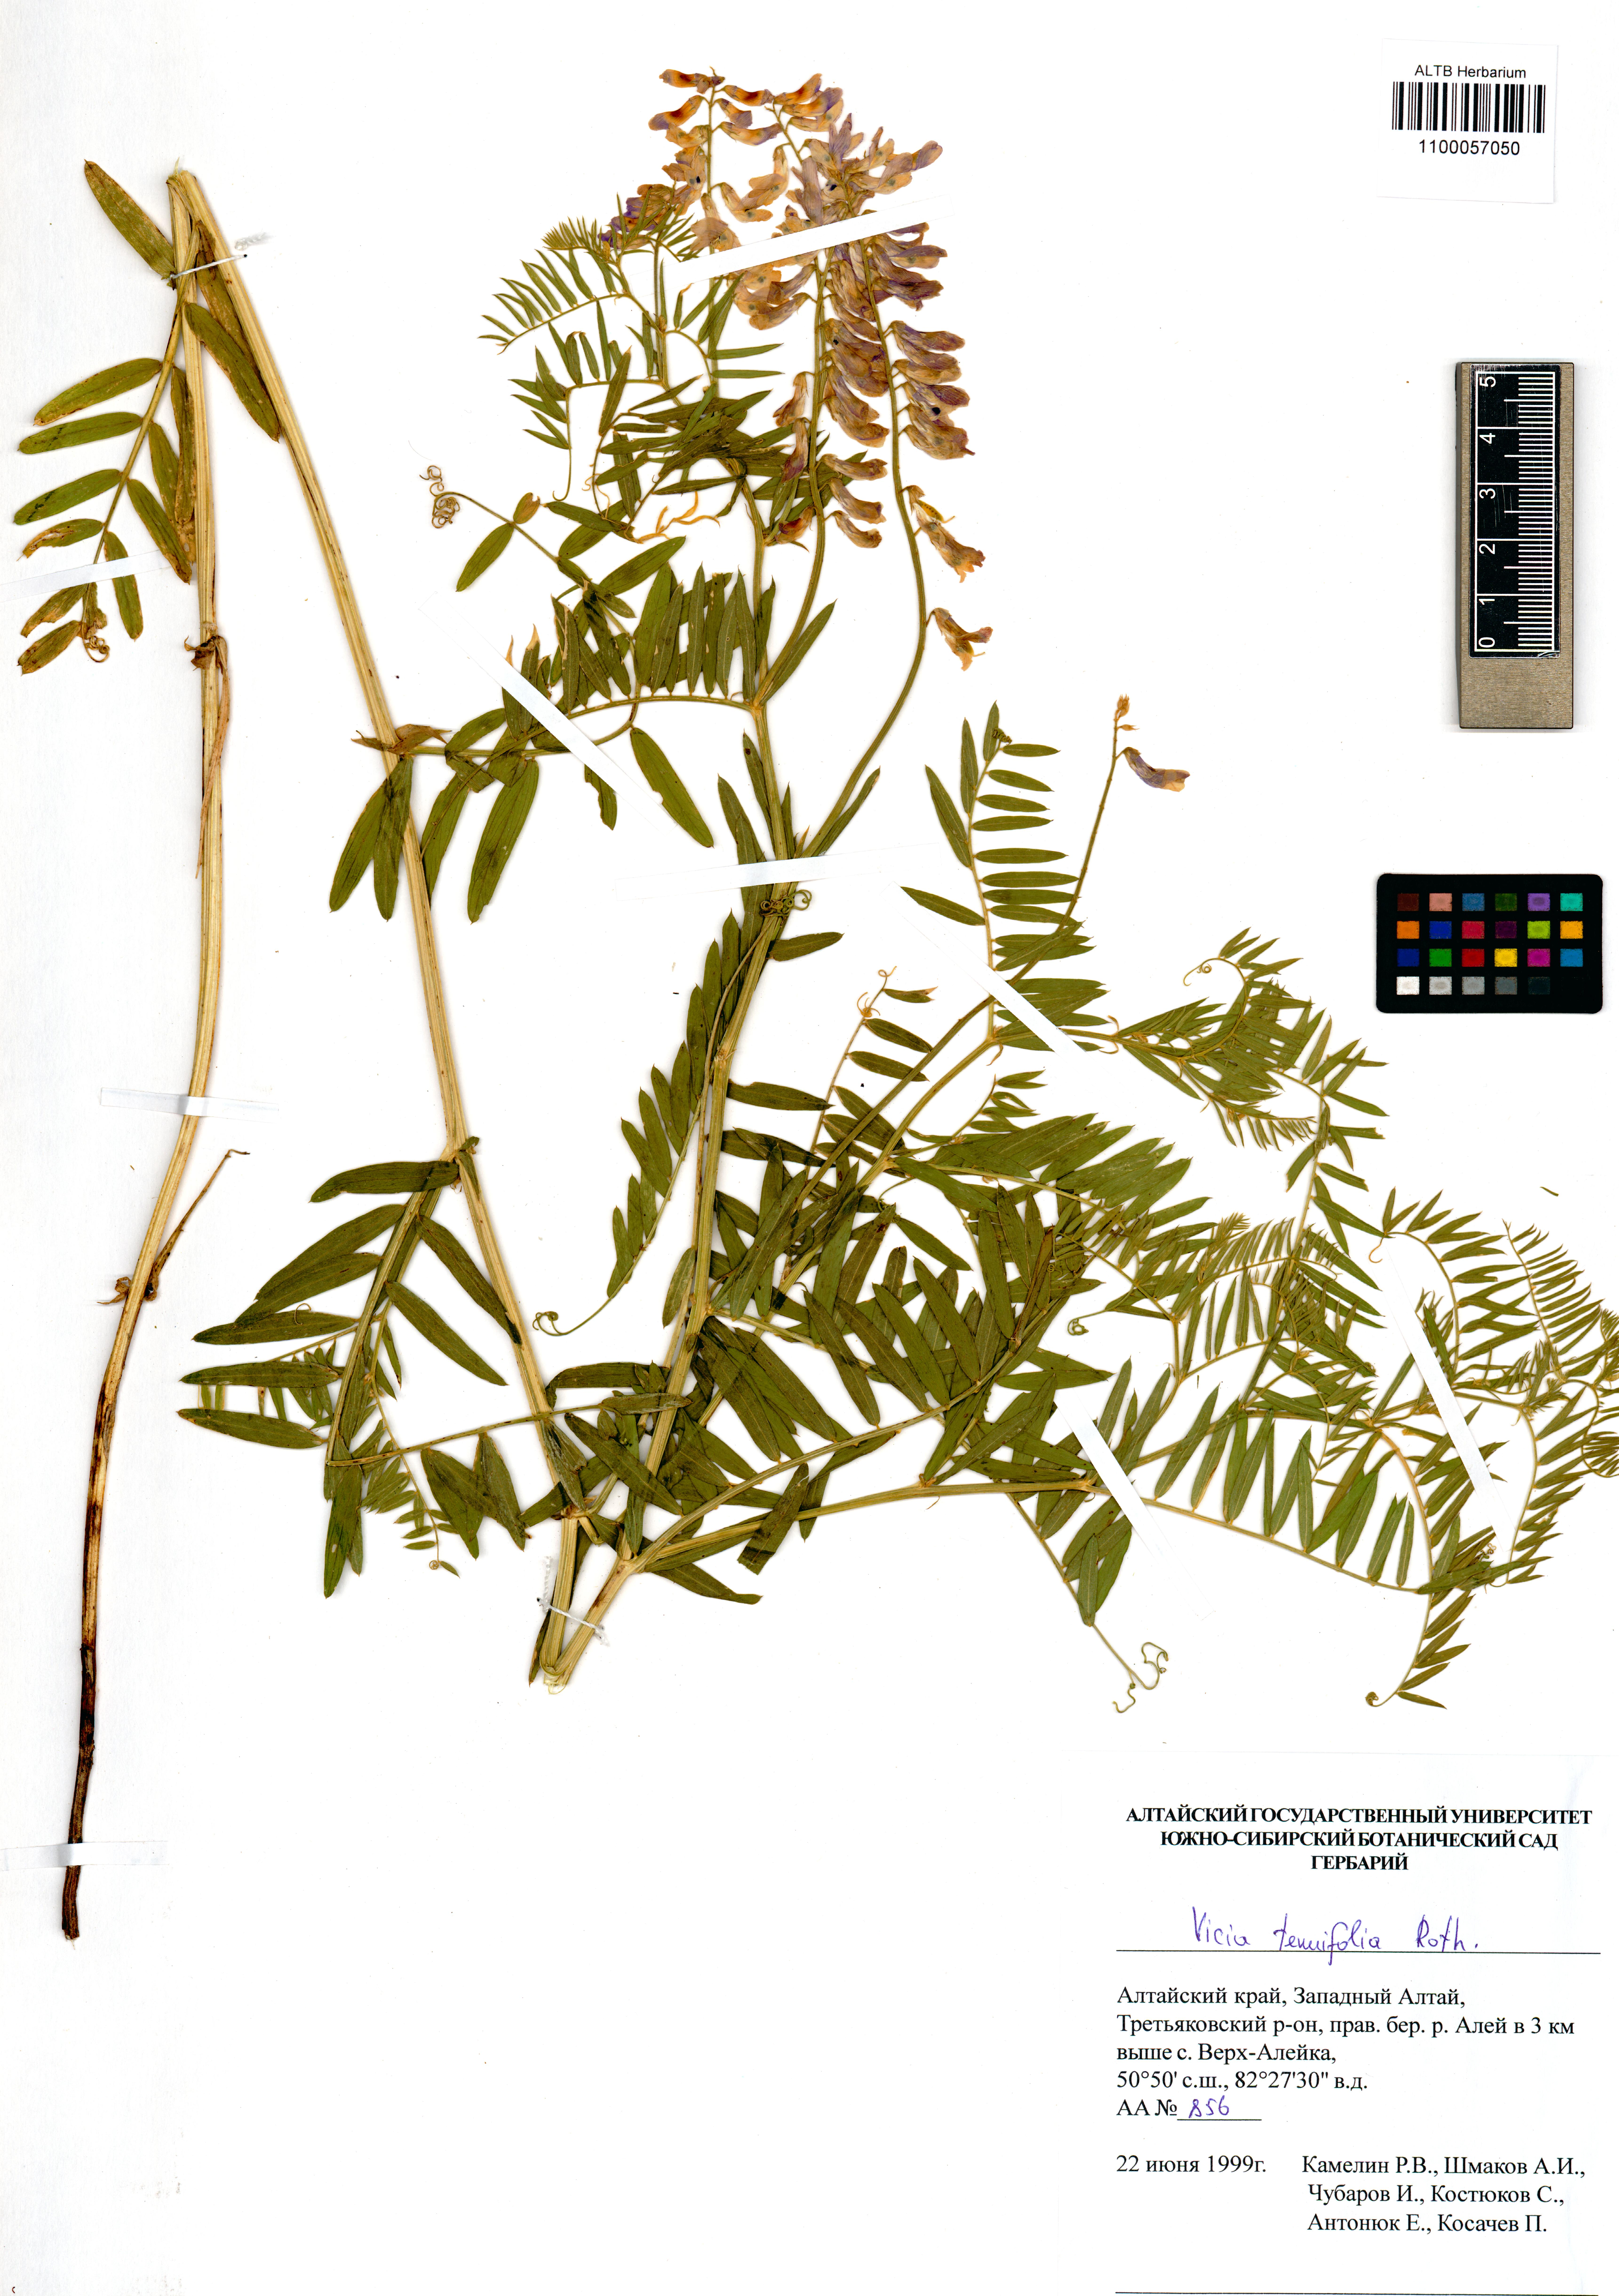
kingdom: Plantae
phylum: Tracheophyta
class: Magnoliopsida
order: Fabales
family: Fabaceae
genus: Vicia
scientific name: Vicia tenuifolia
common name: Fine-leaved vetch
